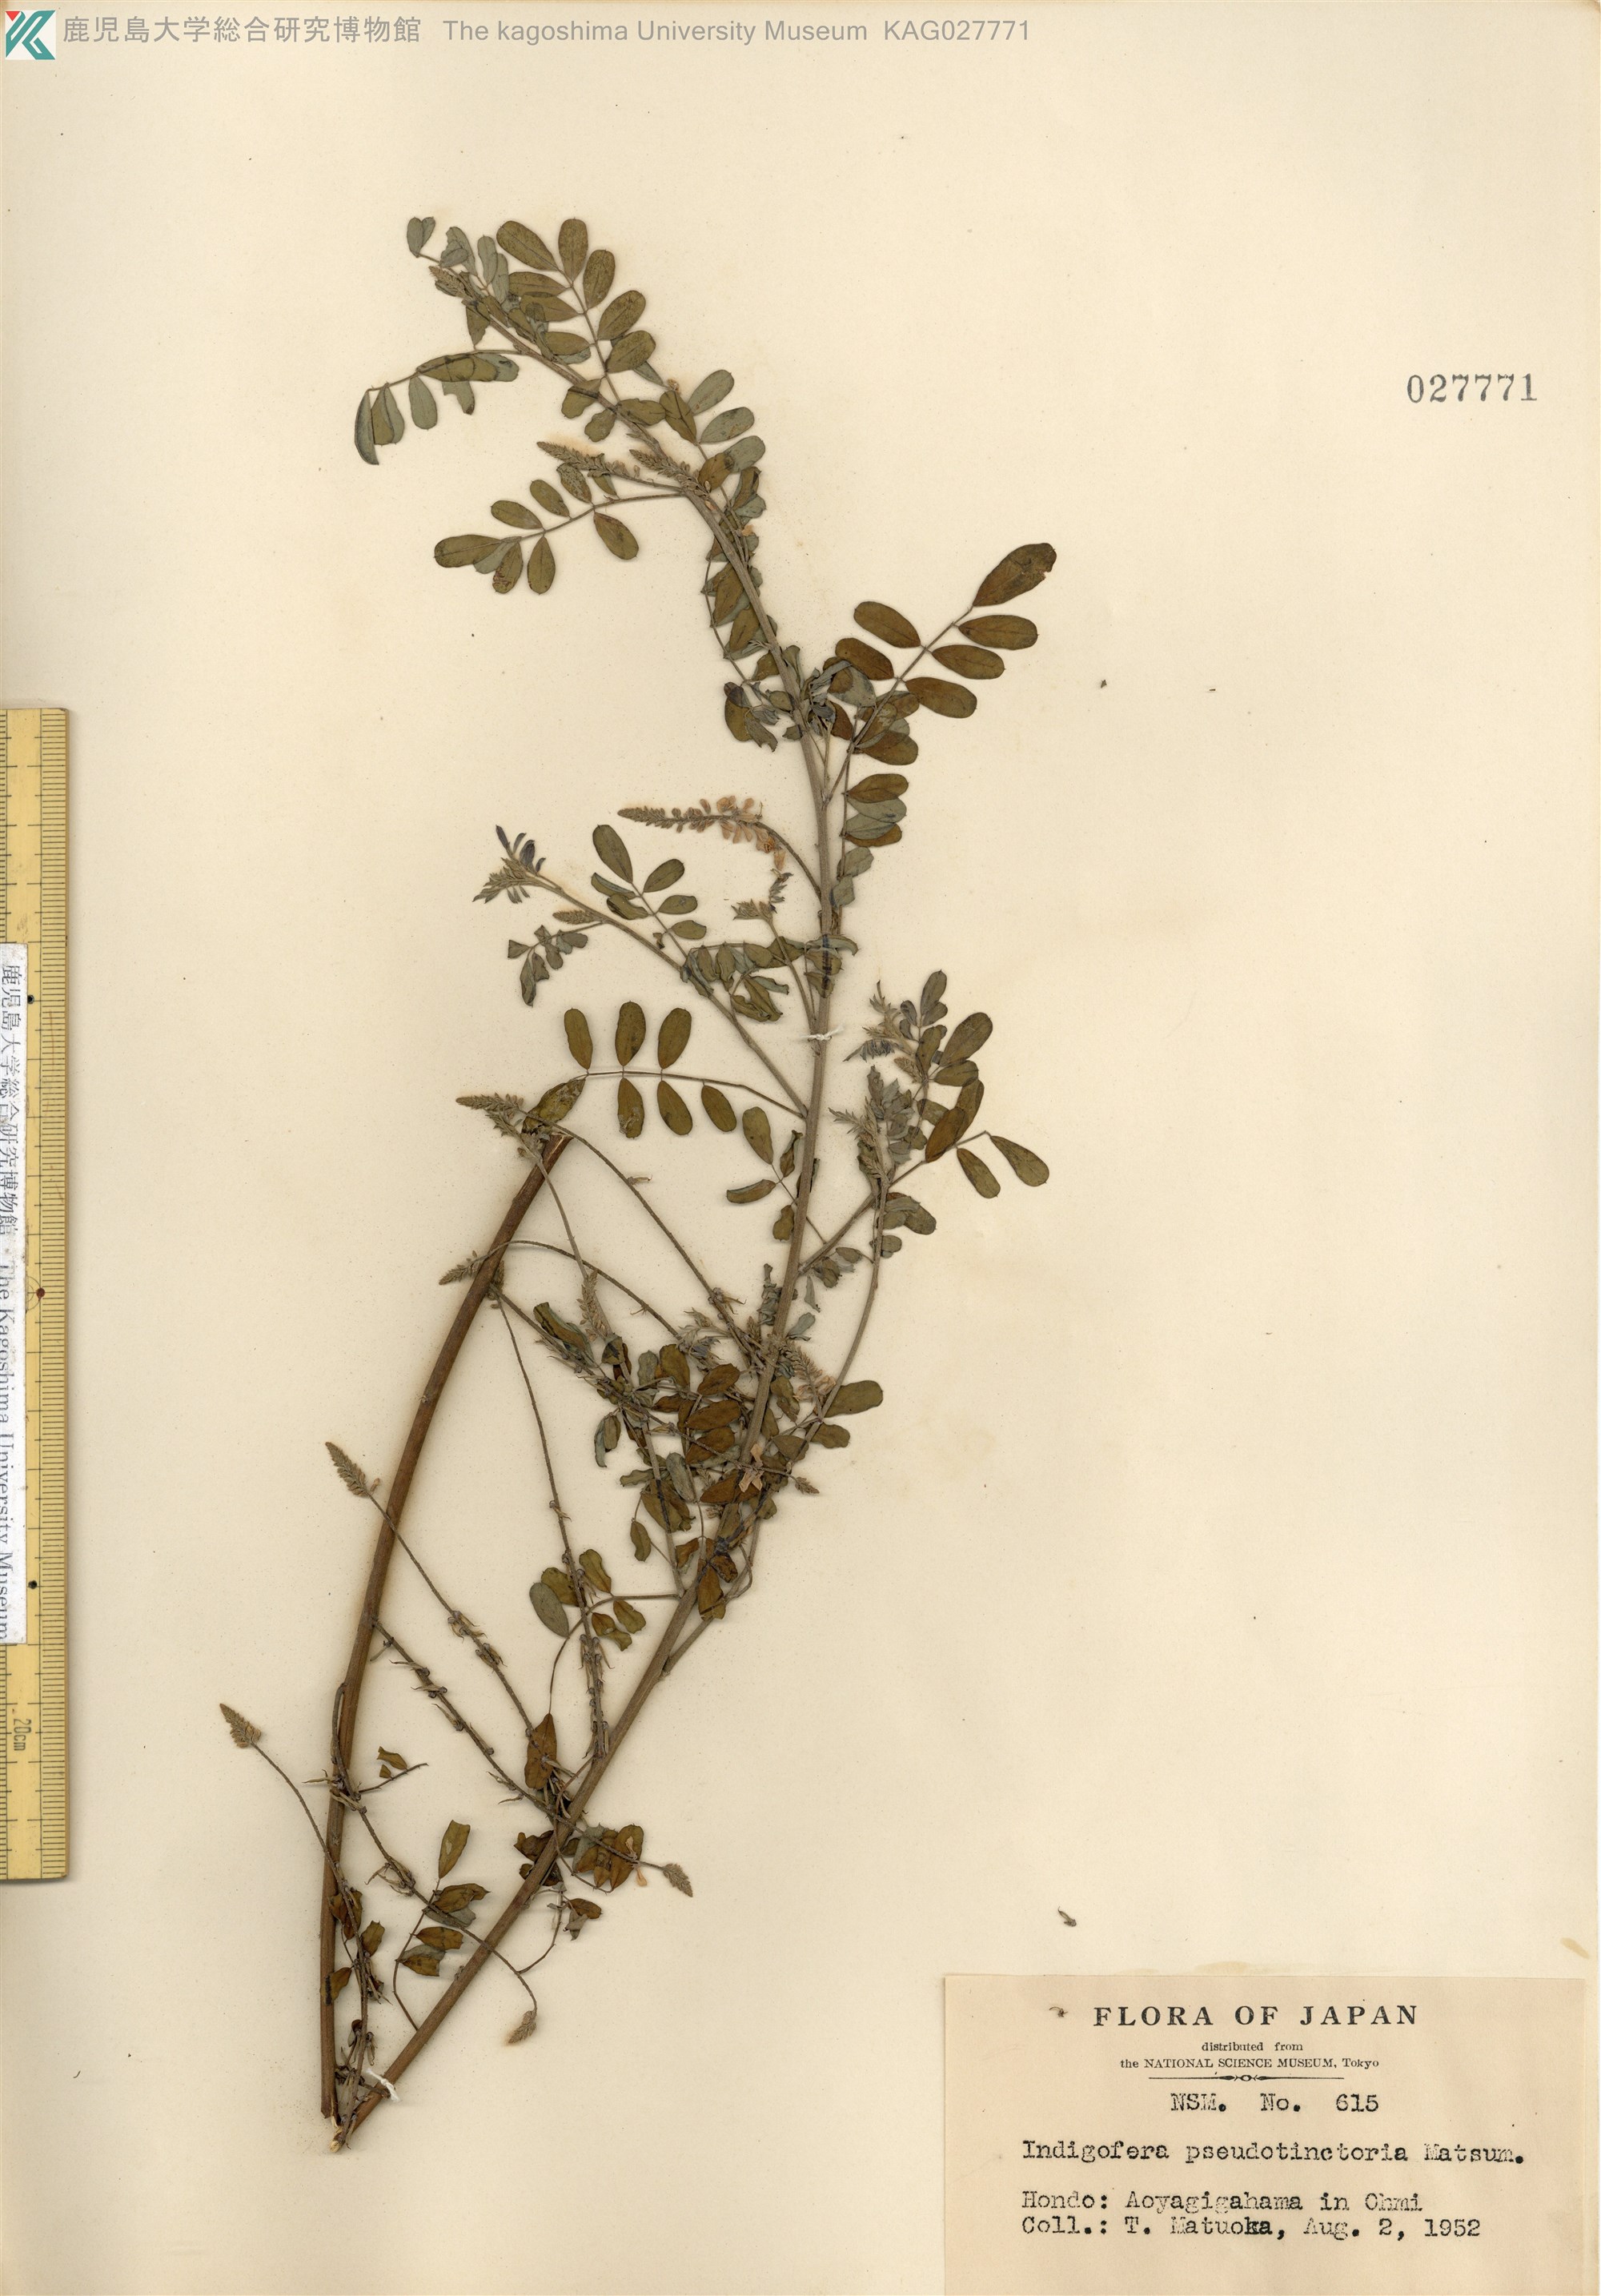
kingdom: Plantae
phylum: Tracheophyta
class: Magnoliopsida
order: Fabales
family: Fabaceae
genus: Indigofera
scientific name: Indigofera bungeana
